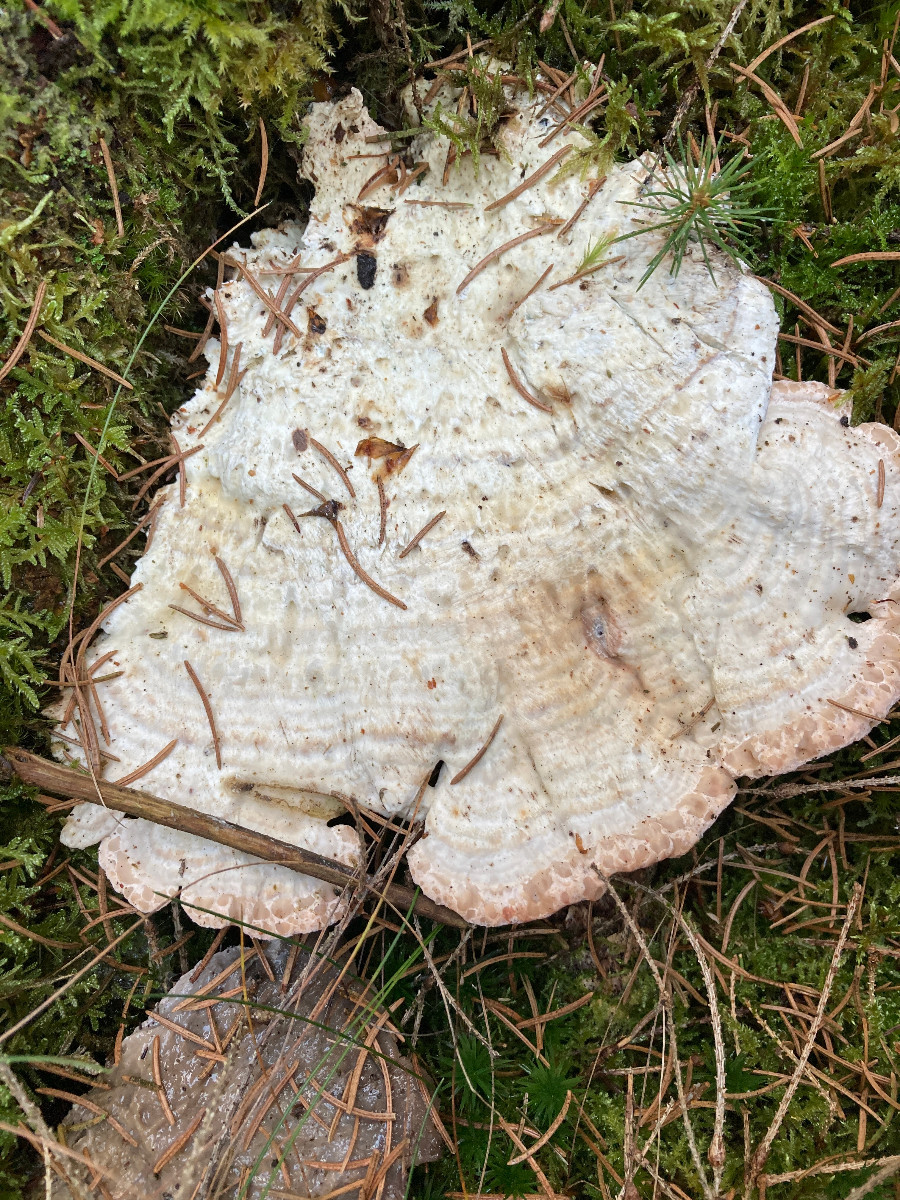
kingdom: Fungi
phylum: Basidiomycota
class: Agaricomycetes
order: Polyporales
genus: Calcipostia
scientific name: Calcipostia guttulata
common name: dråbe-kødporesvamp
